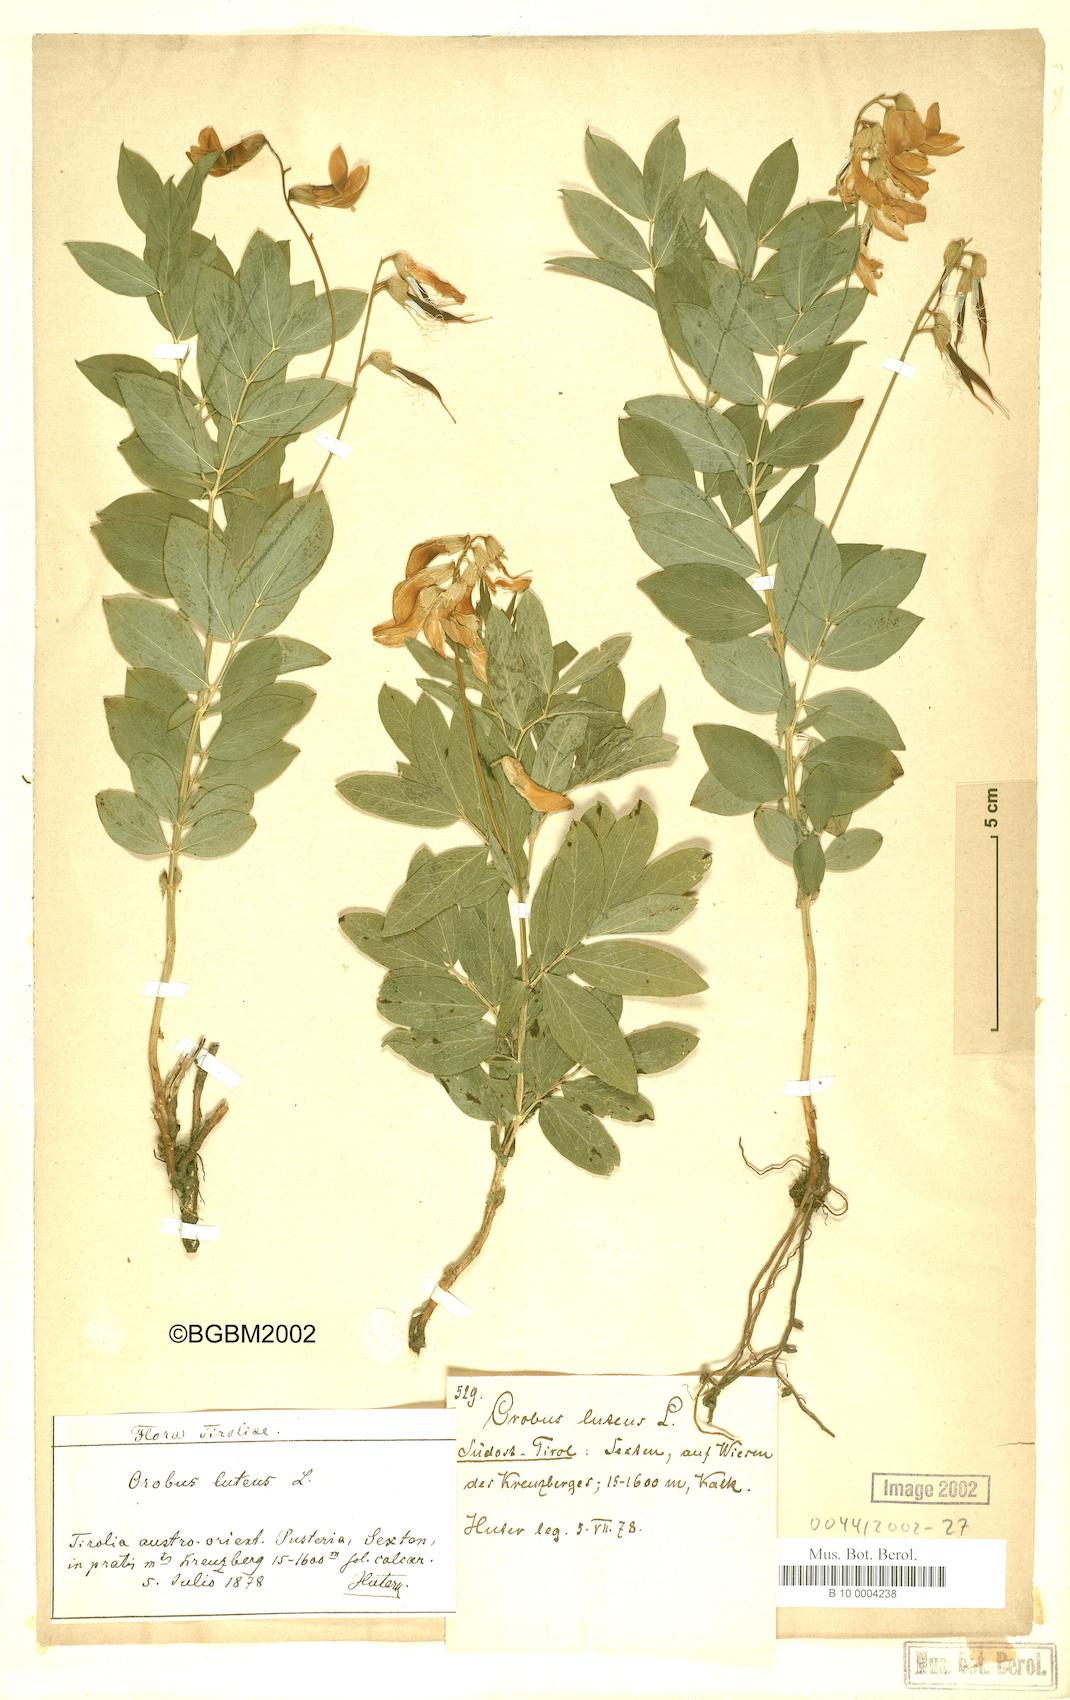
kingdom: Plantae
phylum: Tracheophyta
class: Magnoliopsida
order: Fabales
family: Fabaceae
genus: Lathyrus
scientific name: Lathyrus gmelinii
